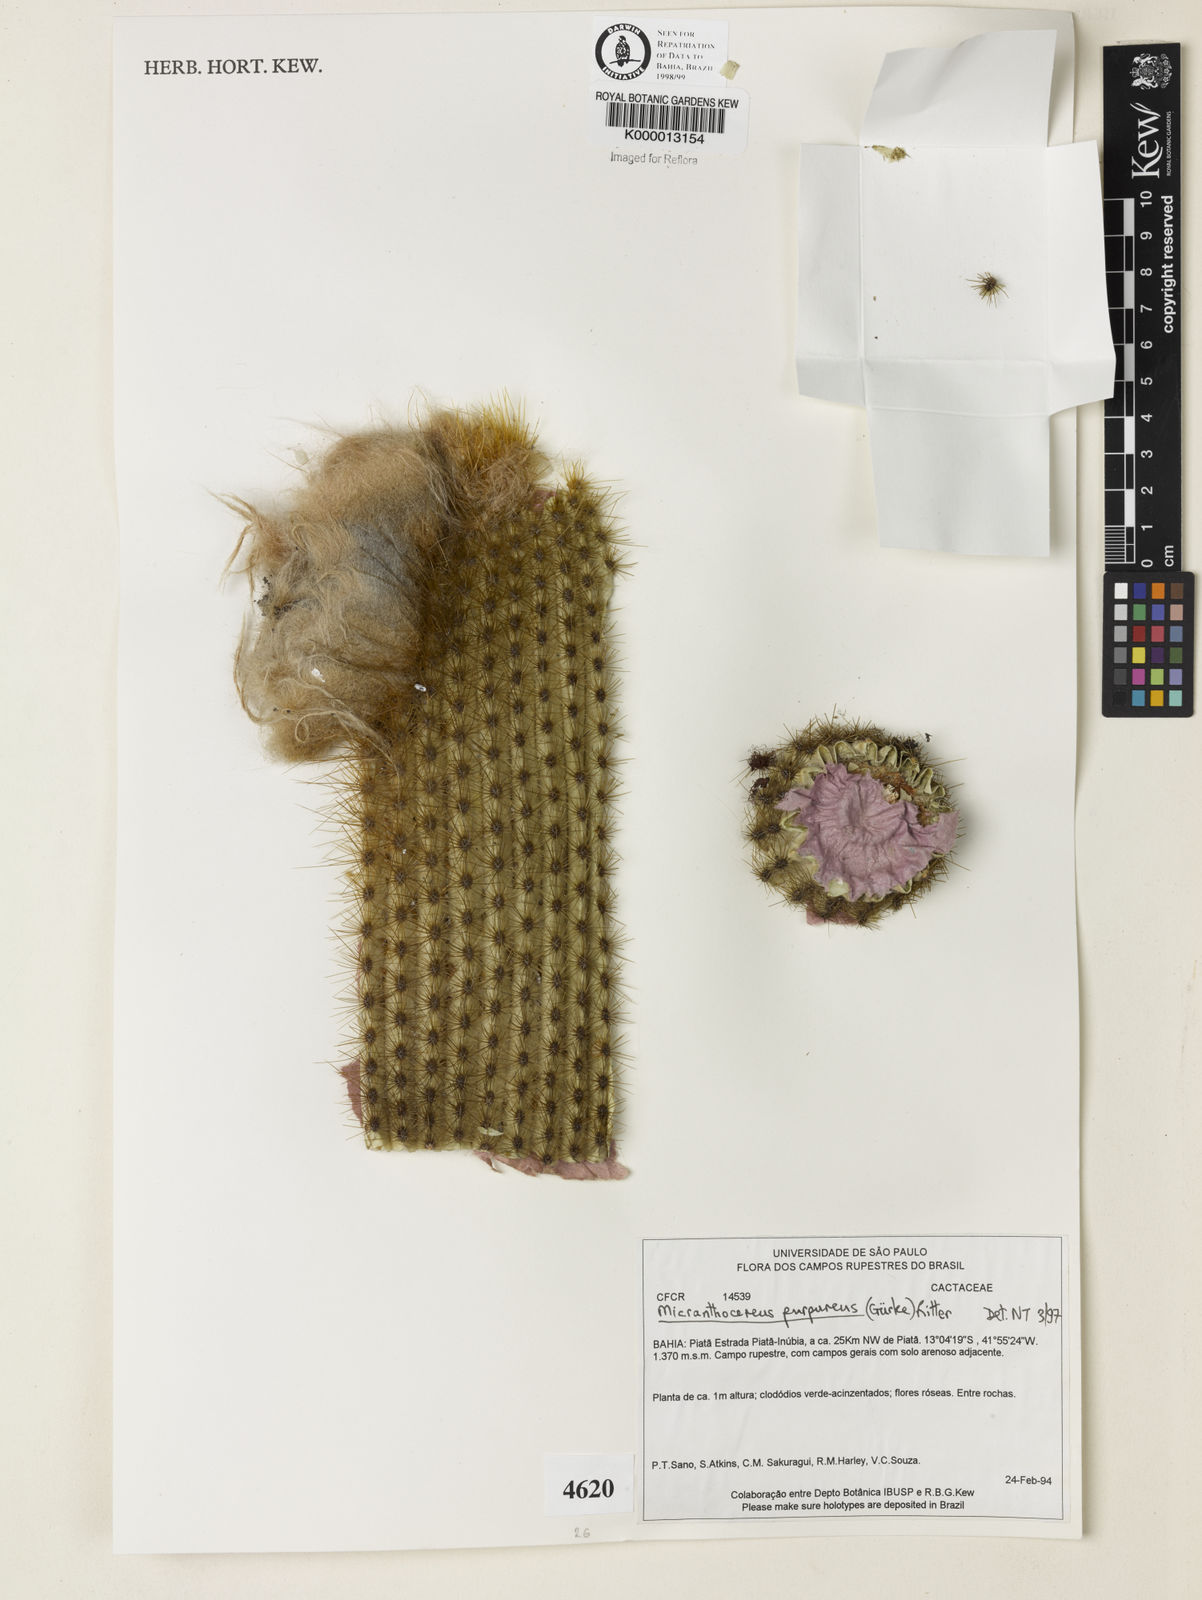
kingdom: Plantae
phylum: Tracheophyta
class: Magnoliopsida
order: Caryophyllales
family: Cactaceae
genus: Micranthocereus
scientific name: Micranthocereus purpureus
